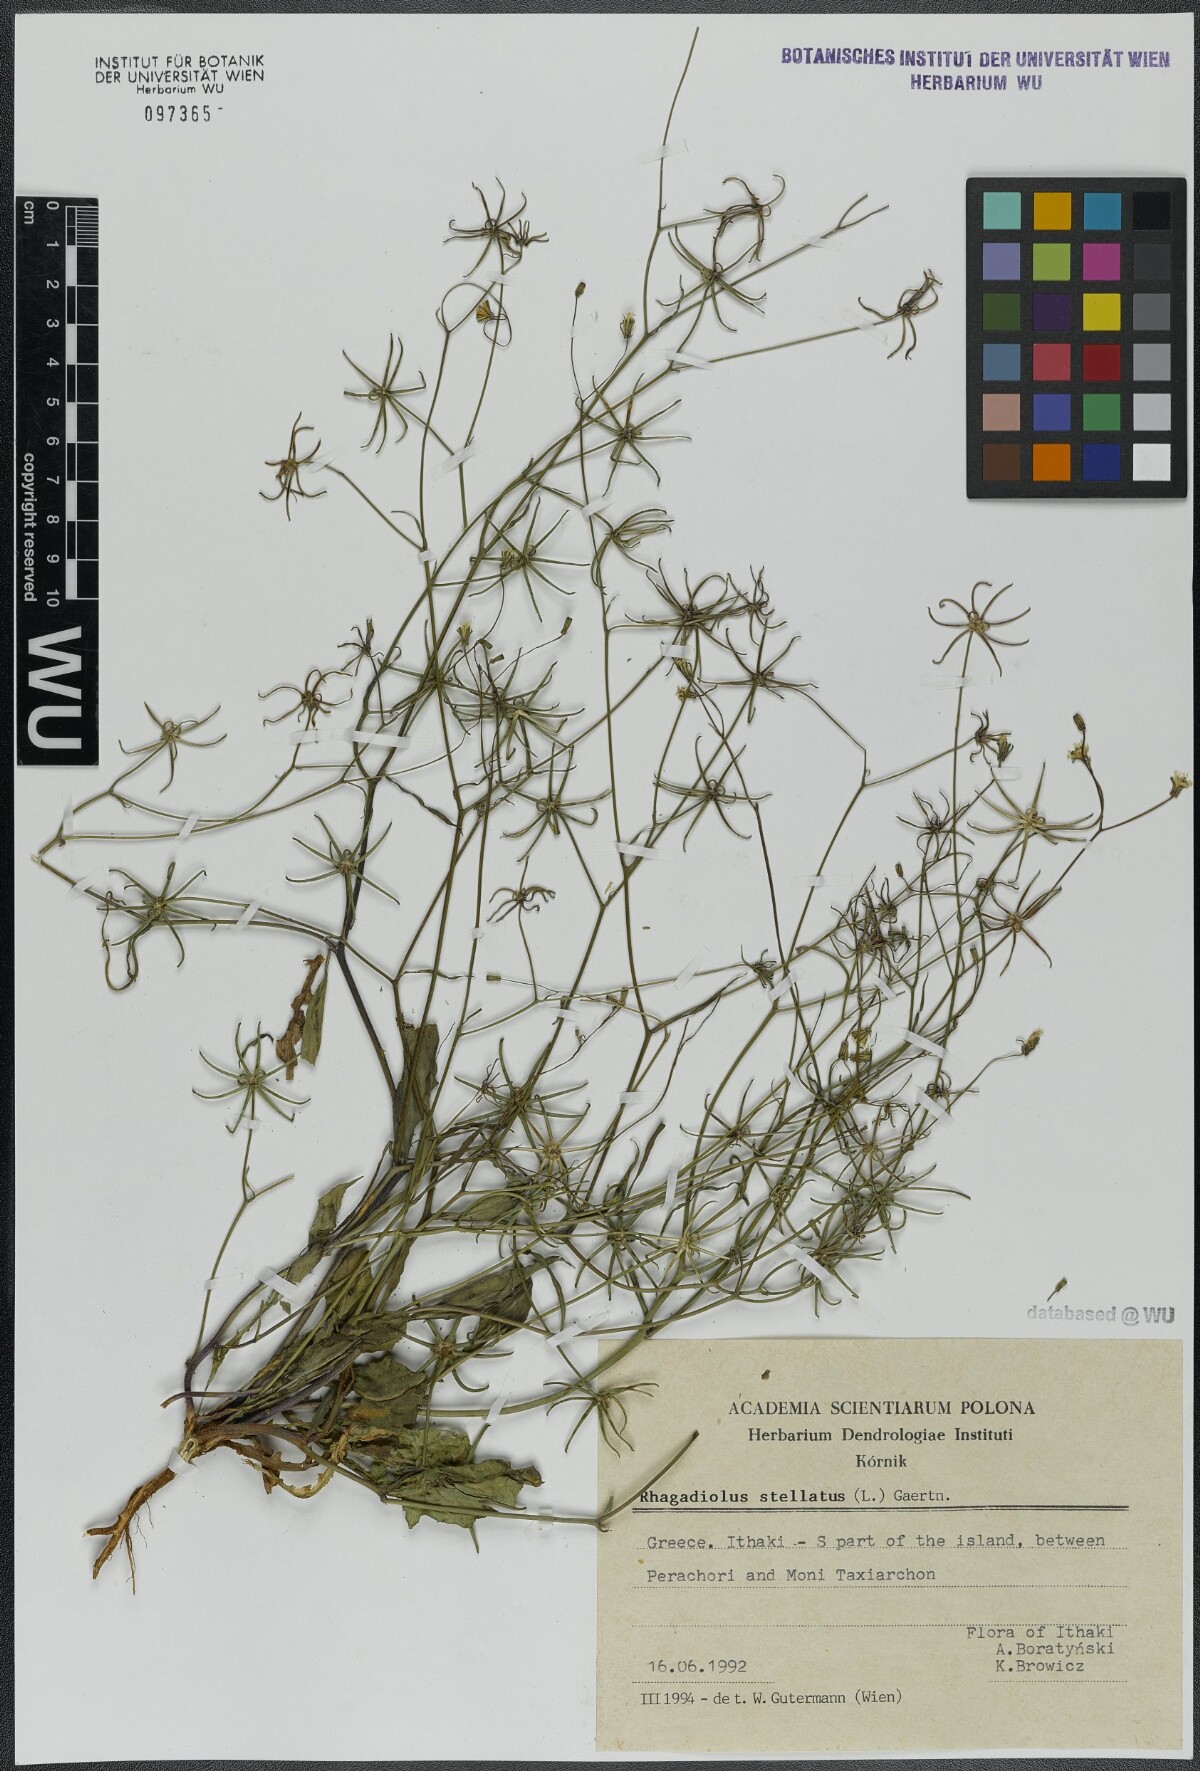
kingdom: Plantae
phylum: Tracheophyta
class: Magnoliopsida
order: Asterales
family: Asteraceae
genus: Rhagadiolus
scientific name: Rhagadiolus stellatus
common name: Star hawkbit
